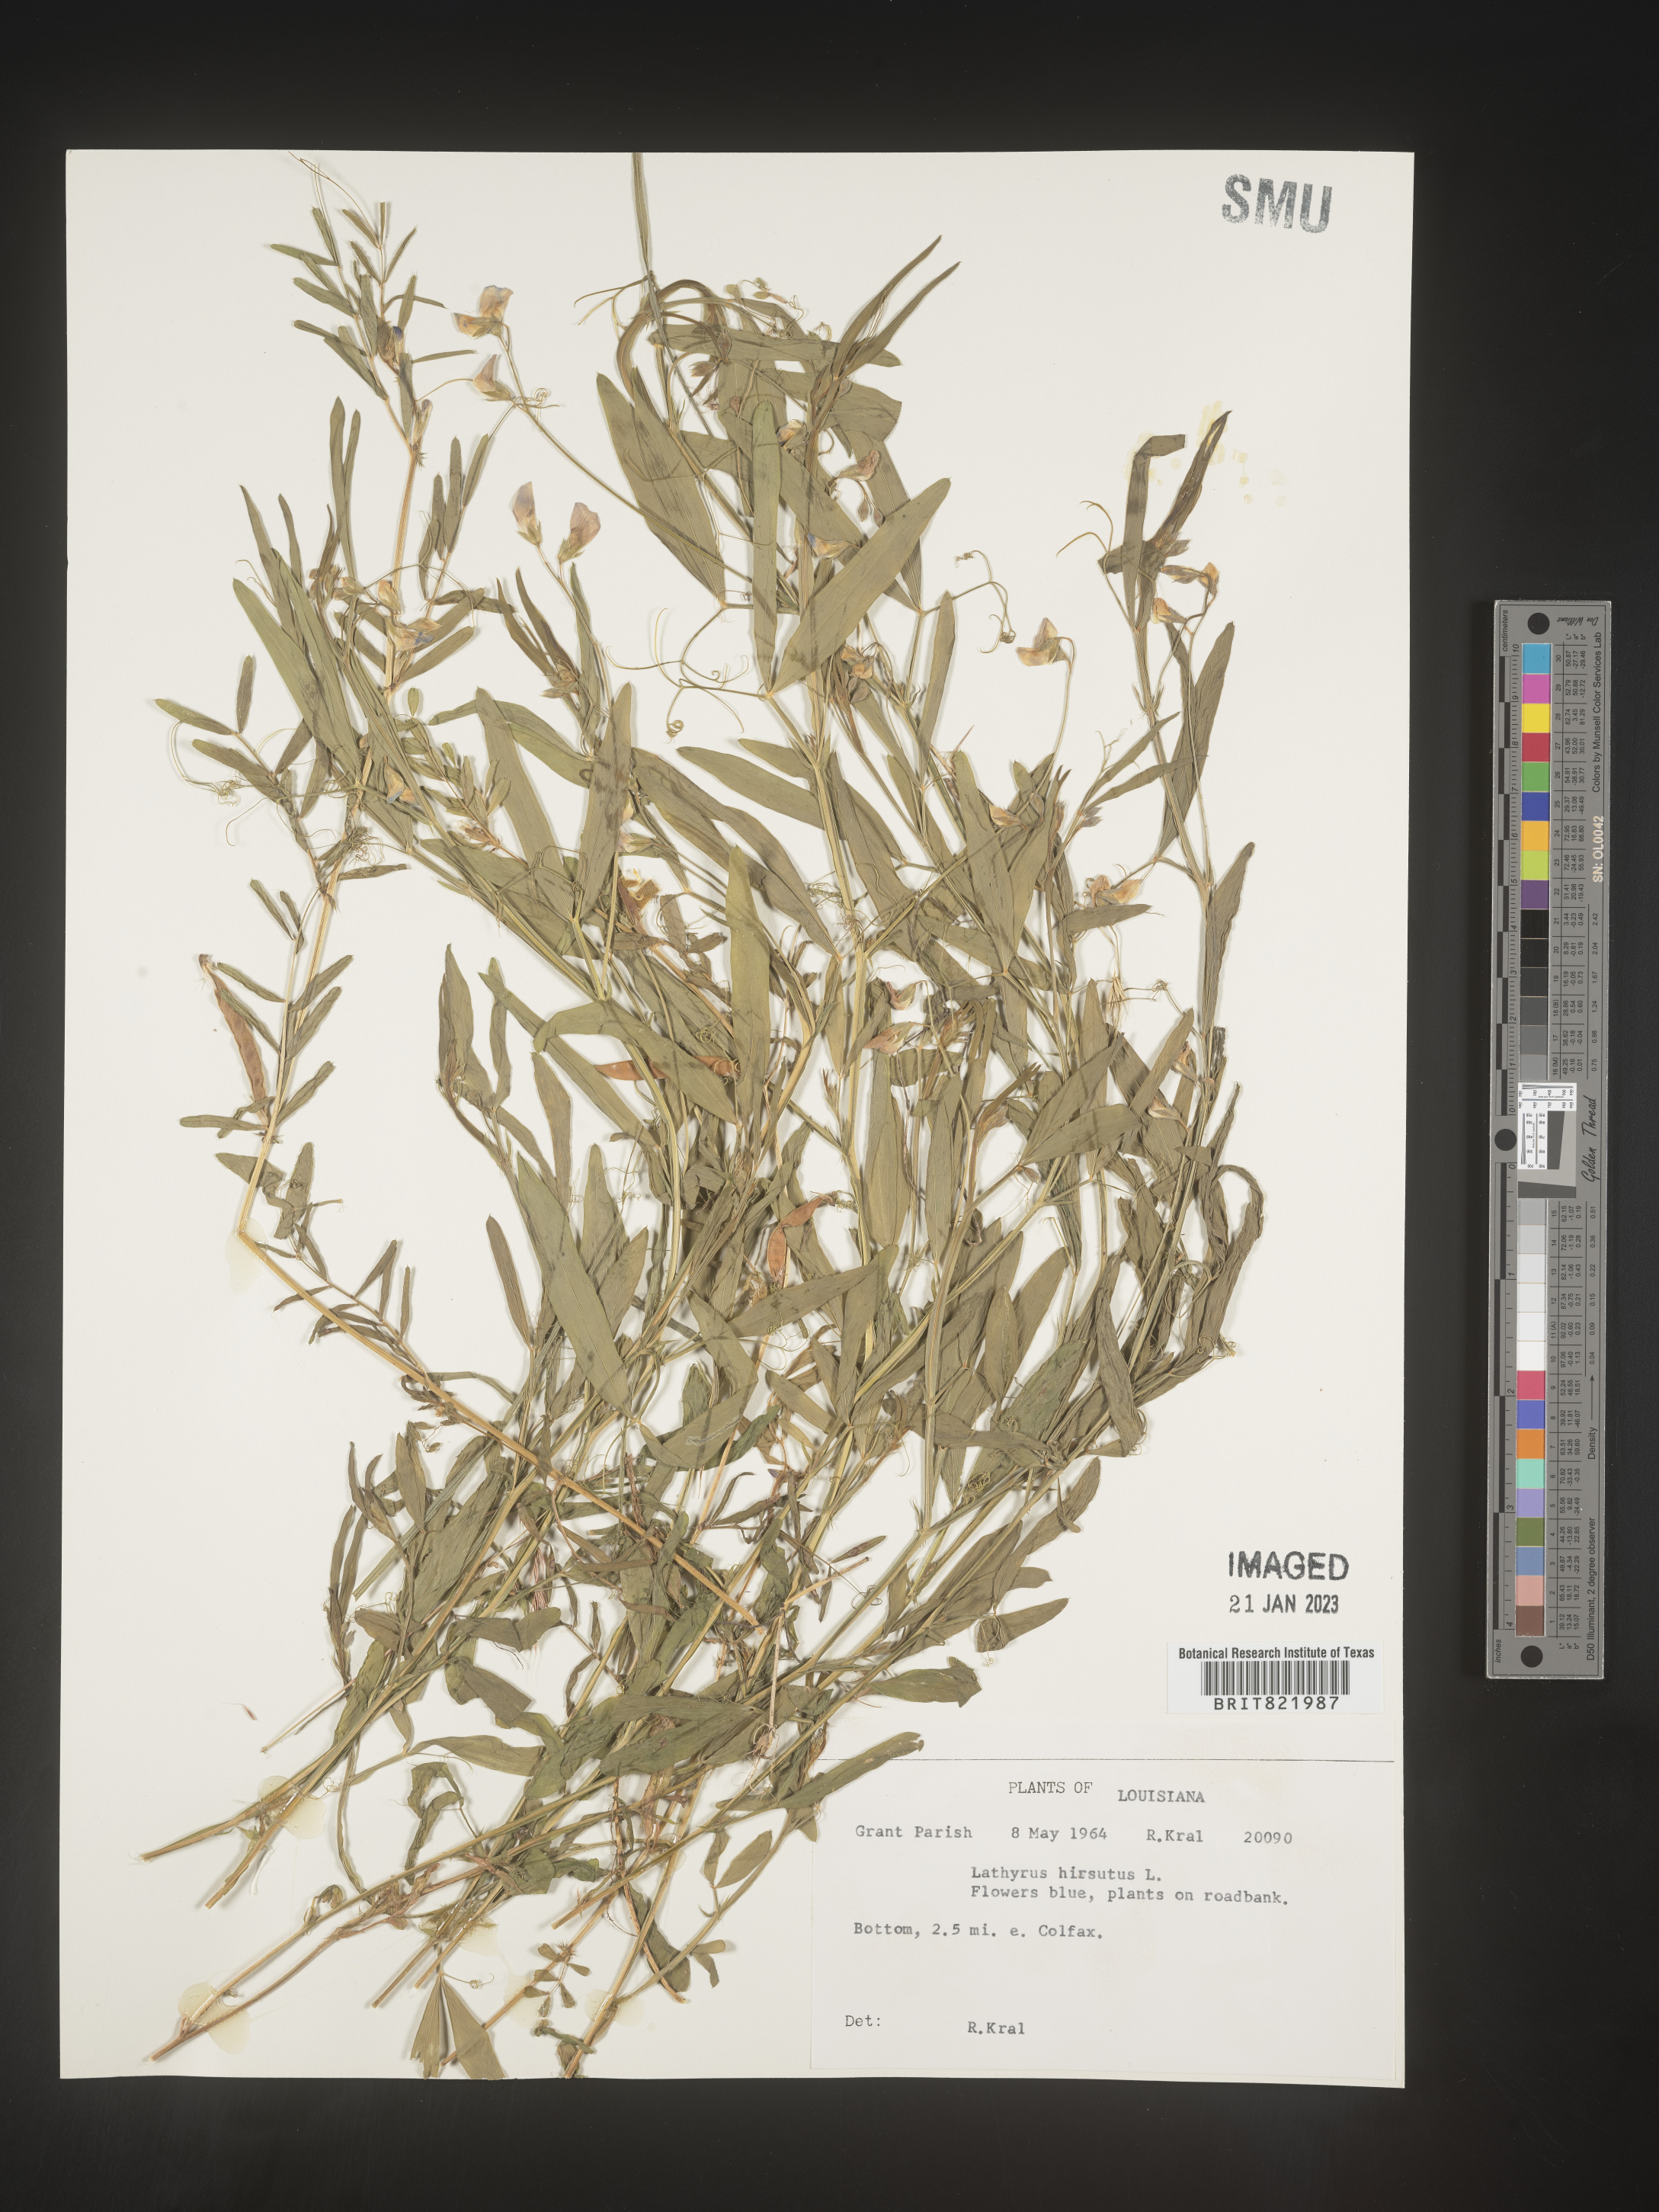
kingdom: Plantae
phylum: Tracheophyta
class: Magnoliopsida
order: Fabales
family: Fabaceae
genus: Lathyrus
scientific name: Lathyrus hirsutus
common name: Hairy vetchling
